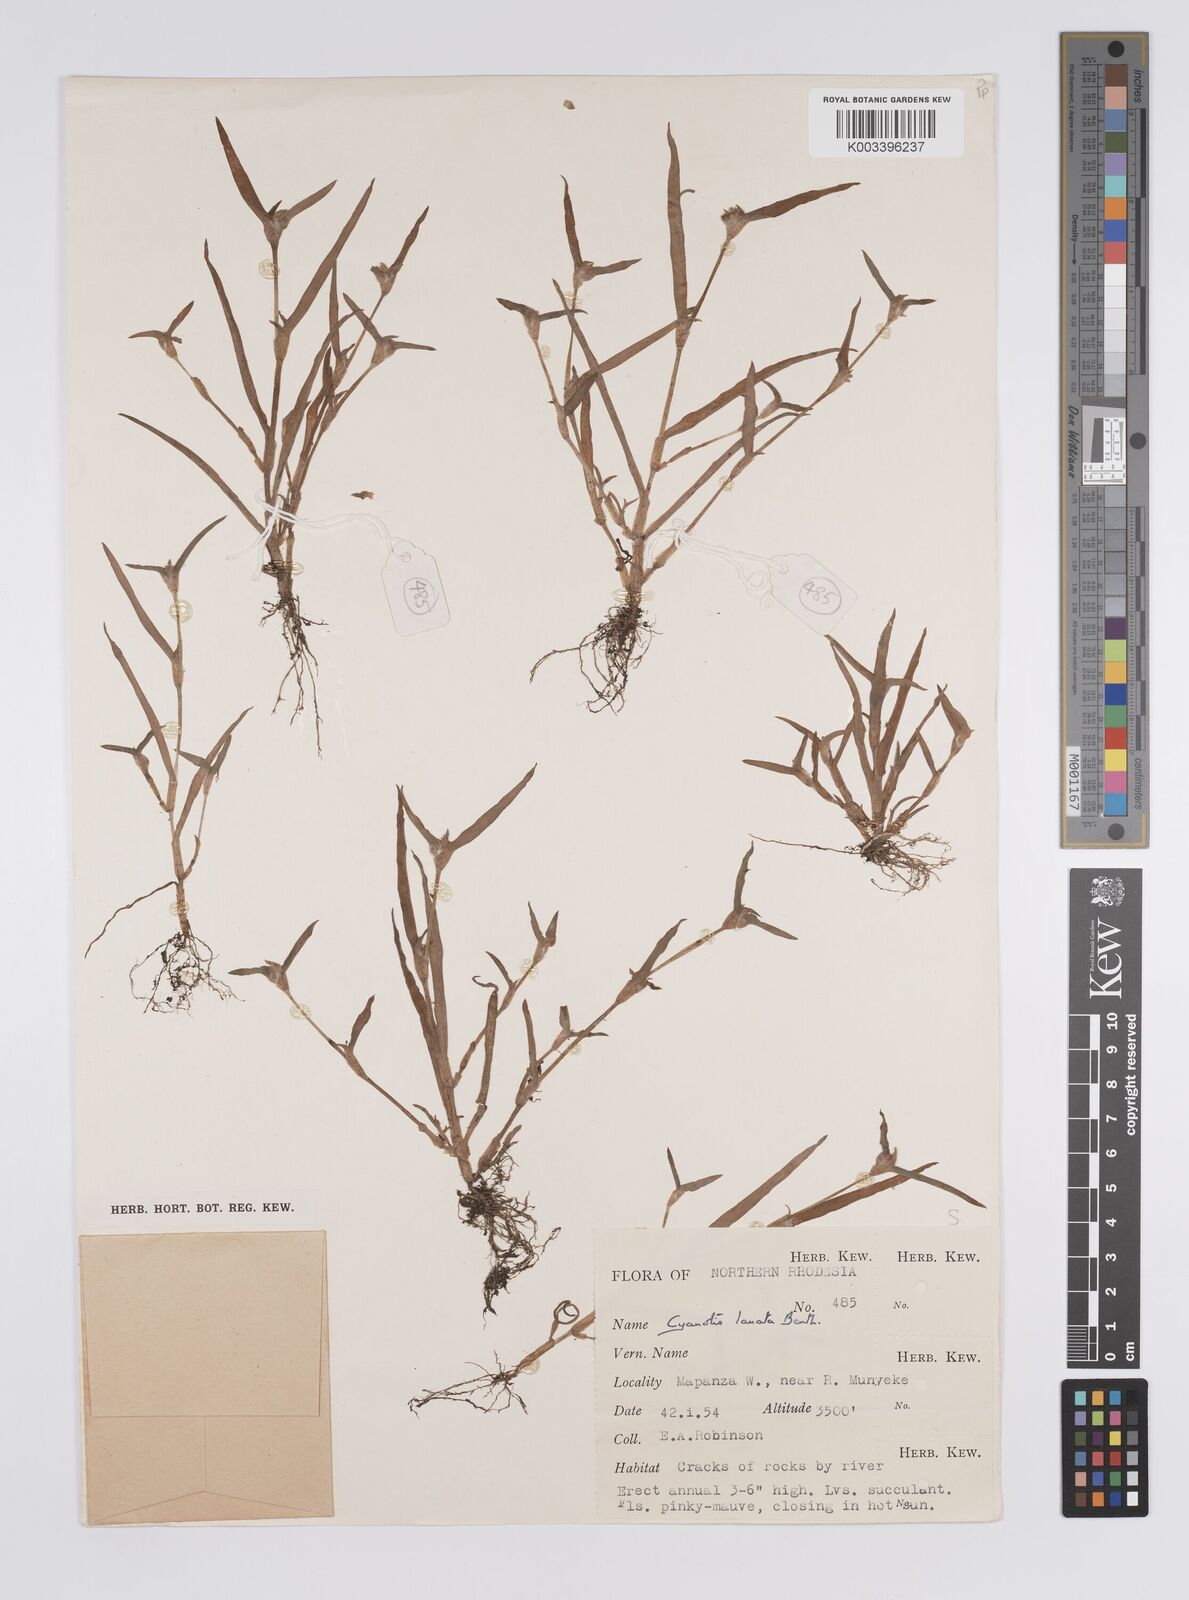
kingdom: Plantae
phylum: Tracheophyta
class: Liliopsida
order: Commelinales
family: Commelinaceae
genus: Cyanotis
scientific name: Cyanotis lanata
